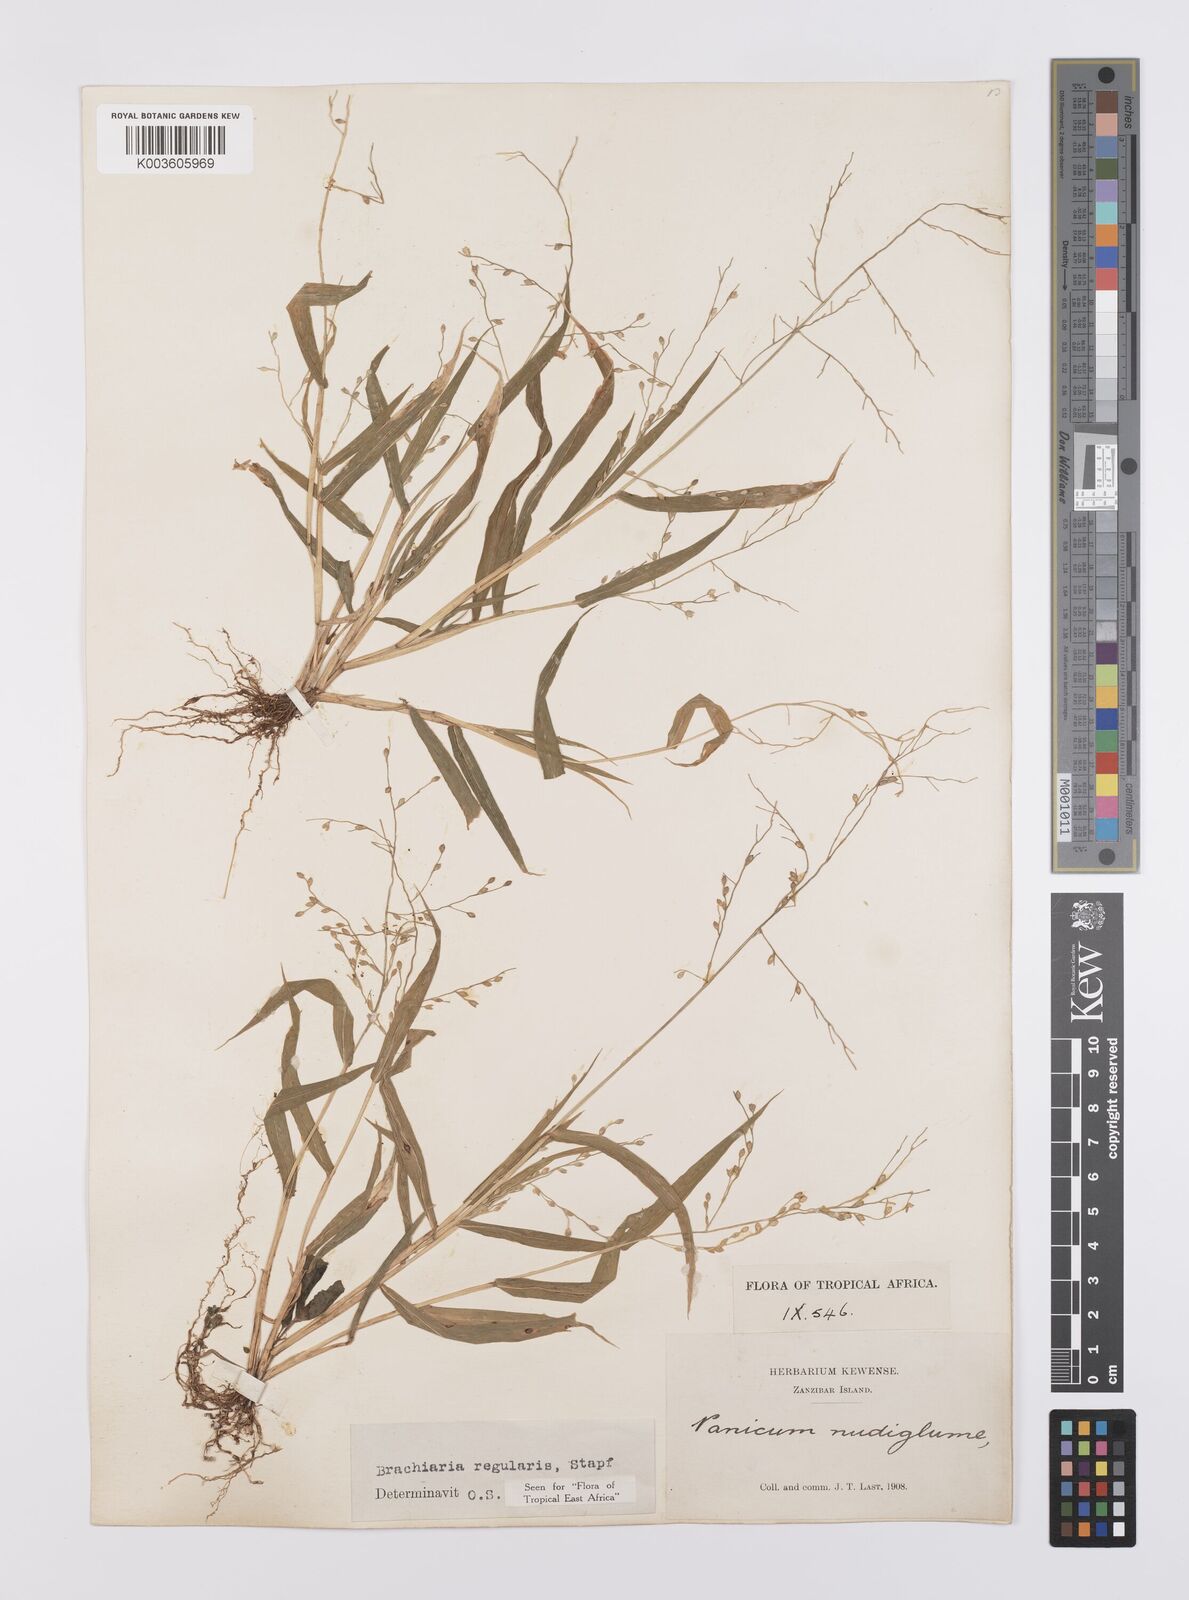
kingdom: Plantae
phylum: Tracheophyta
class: Liliopsida
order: Poales
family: Poaceae
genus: Urochloa
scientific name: Urochloa deflexa
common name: Guinea millet
